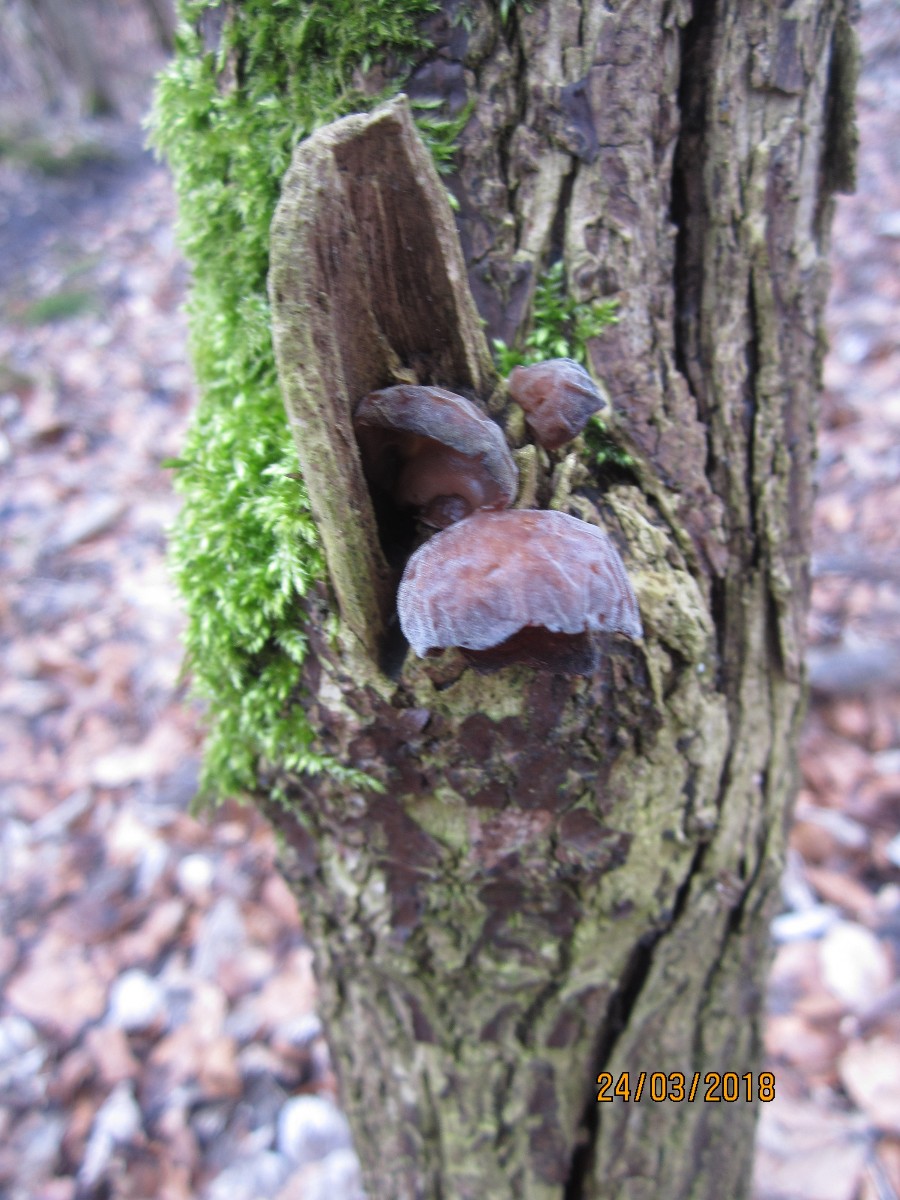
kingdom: Fungi
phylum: Basidiomycota
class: Agaricomycetes
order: Auriculariales
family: Auriculariaceae
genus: Auricularia
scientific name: Auricularia auricula-judae
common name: almindelig judasøre
